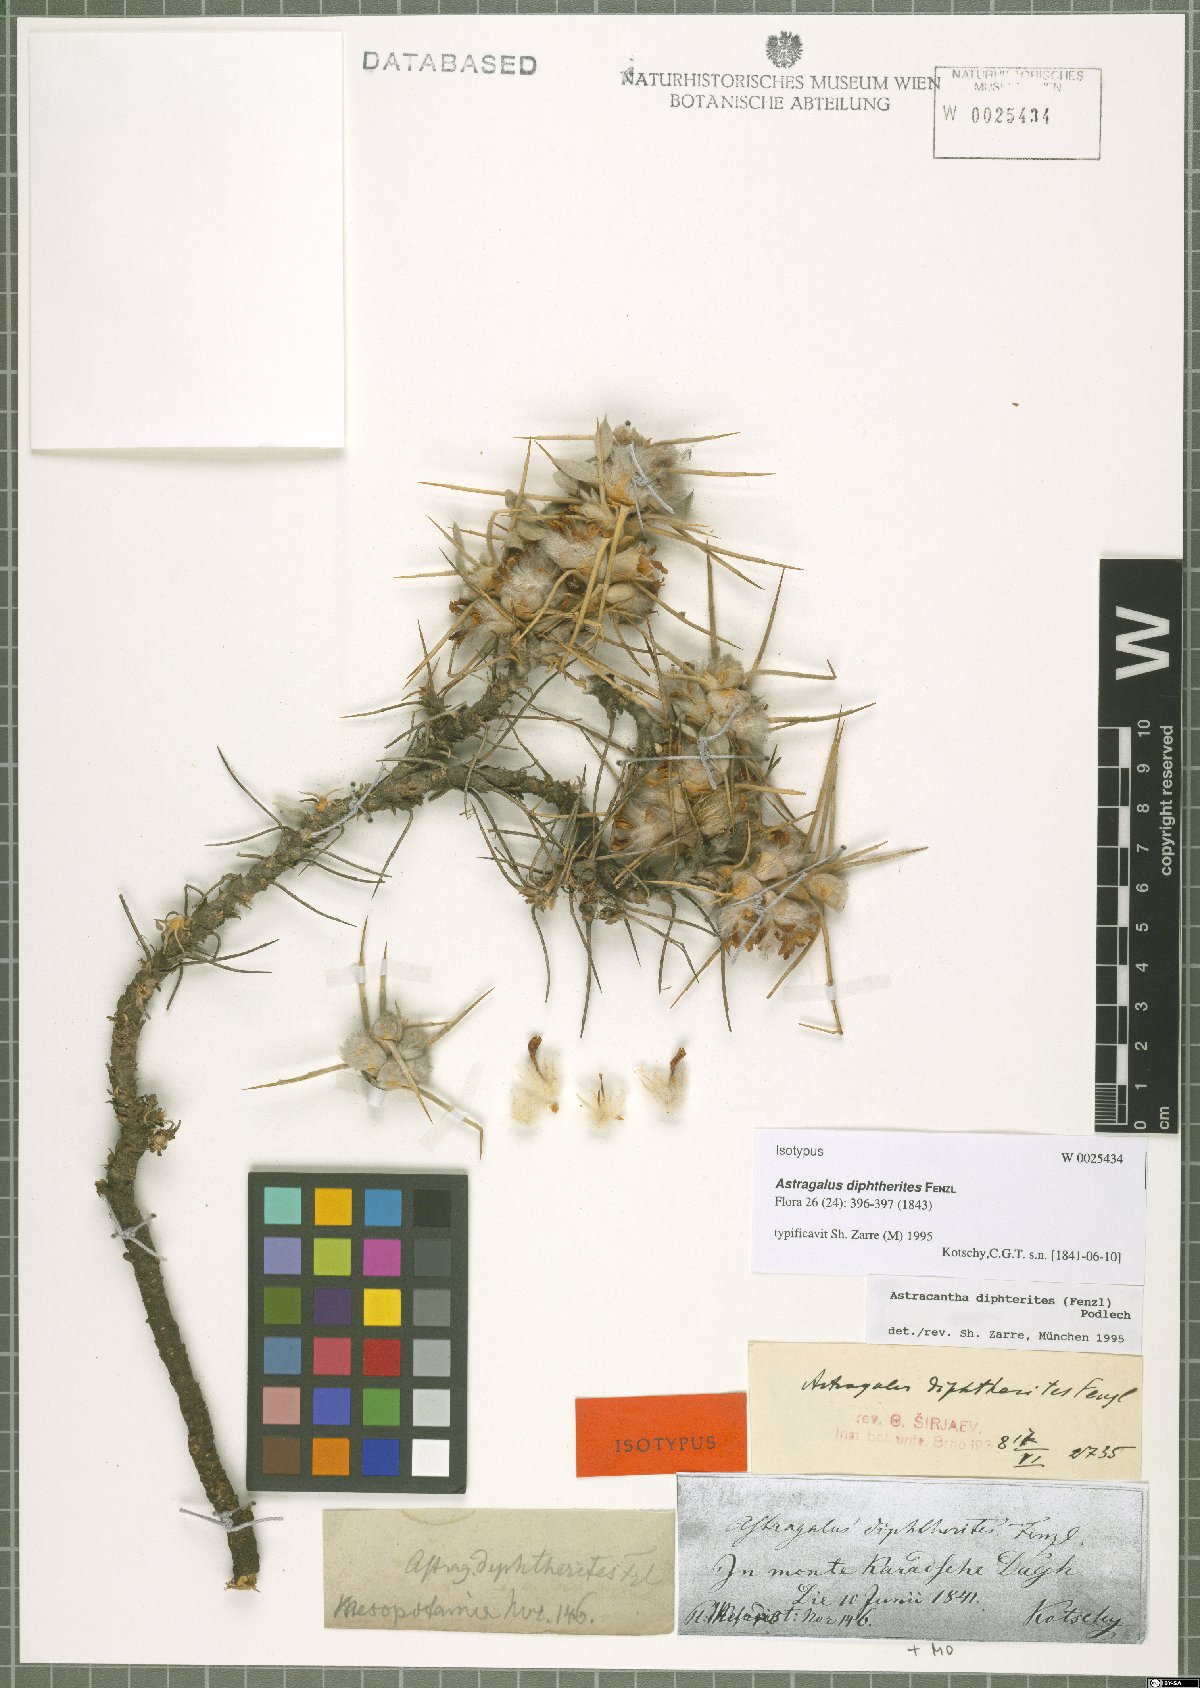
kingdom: Plantae
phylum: Tracheophyta
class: Magnoliopsida
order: Fabales
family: Fabaceae
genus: Astragalus
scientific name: Astragalus diphtherites
